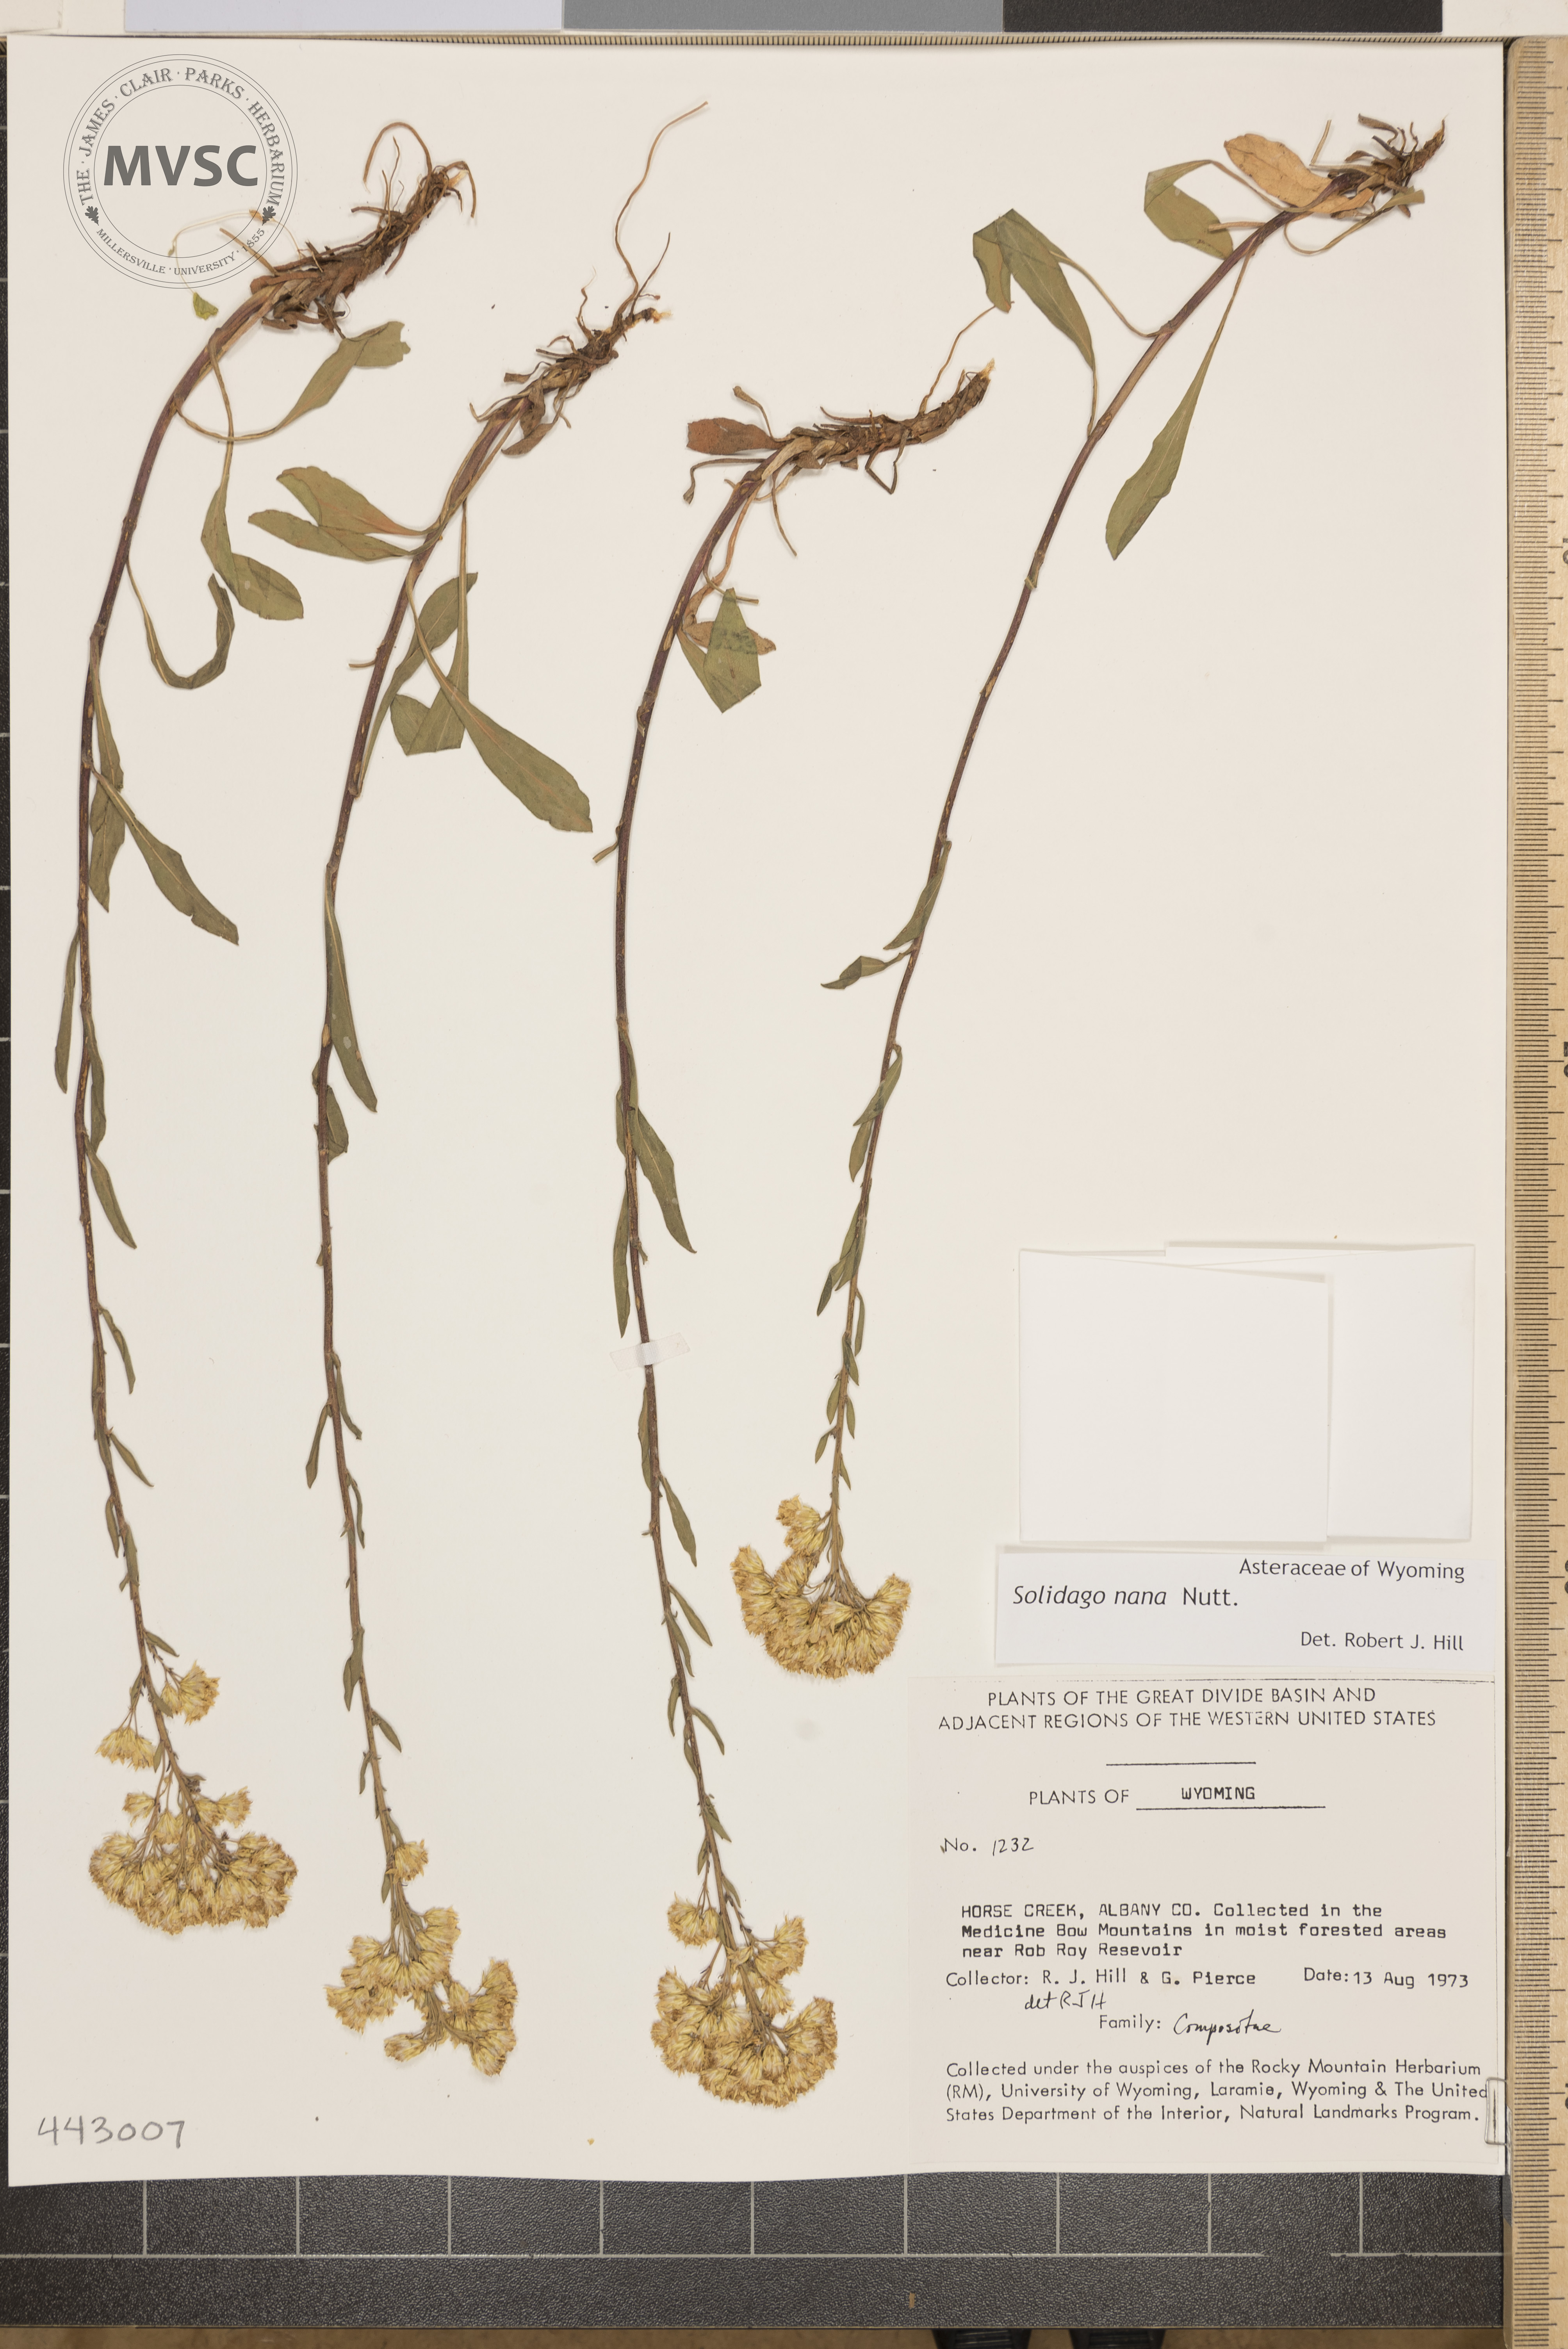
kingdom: Plantae
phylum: Tracheophyta
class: Magnoliopsida
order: Asterales
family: Asteraceae
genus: Solidago
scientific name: Solidago nana
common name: Baby goldenrod
